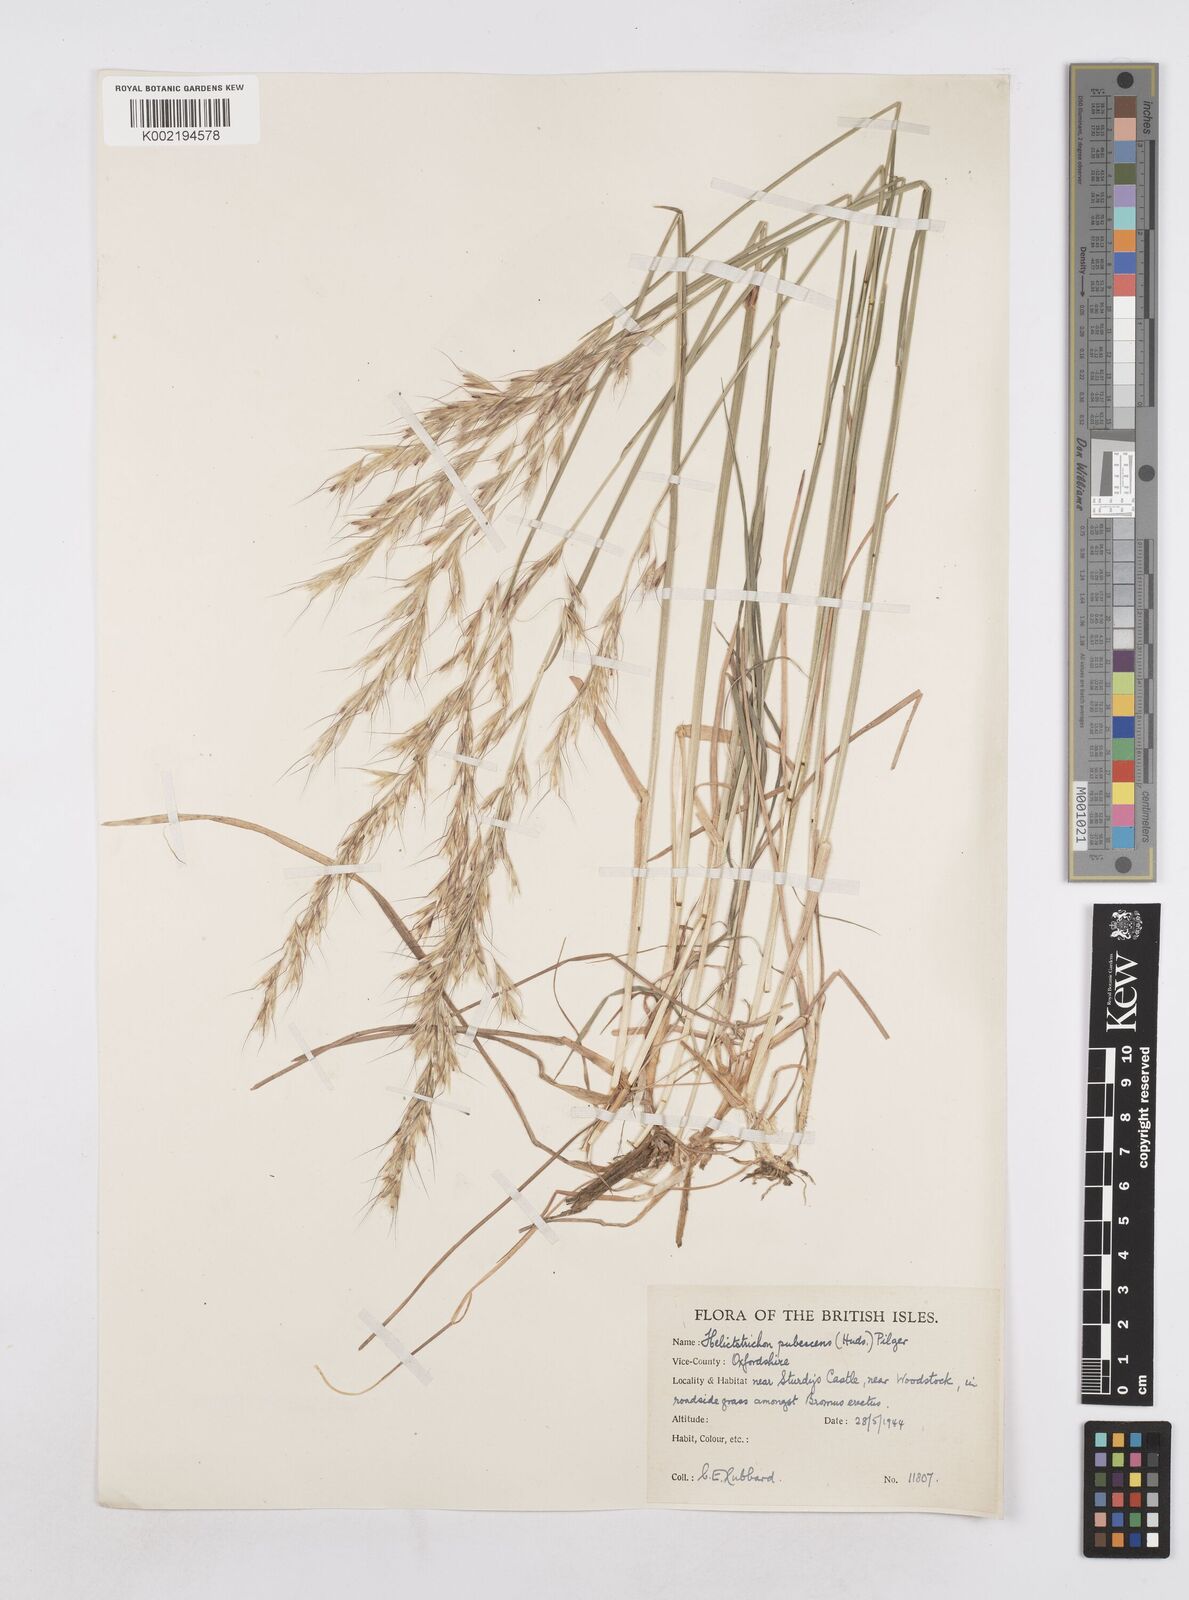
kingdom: Plantae
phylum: Tracheophyta
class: Liliopsida
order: Poales
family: Poaceae
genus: Avenula
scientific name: Avenula pubescens
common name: Downy alpine oatgrass
